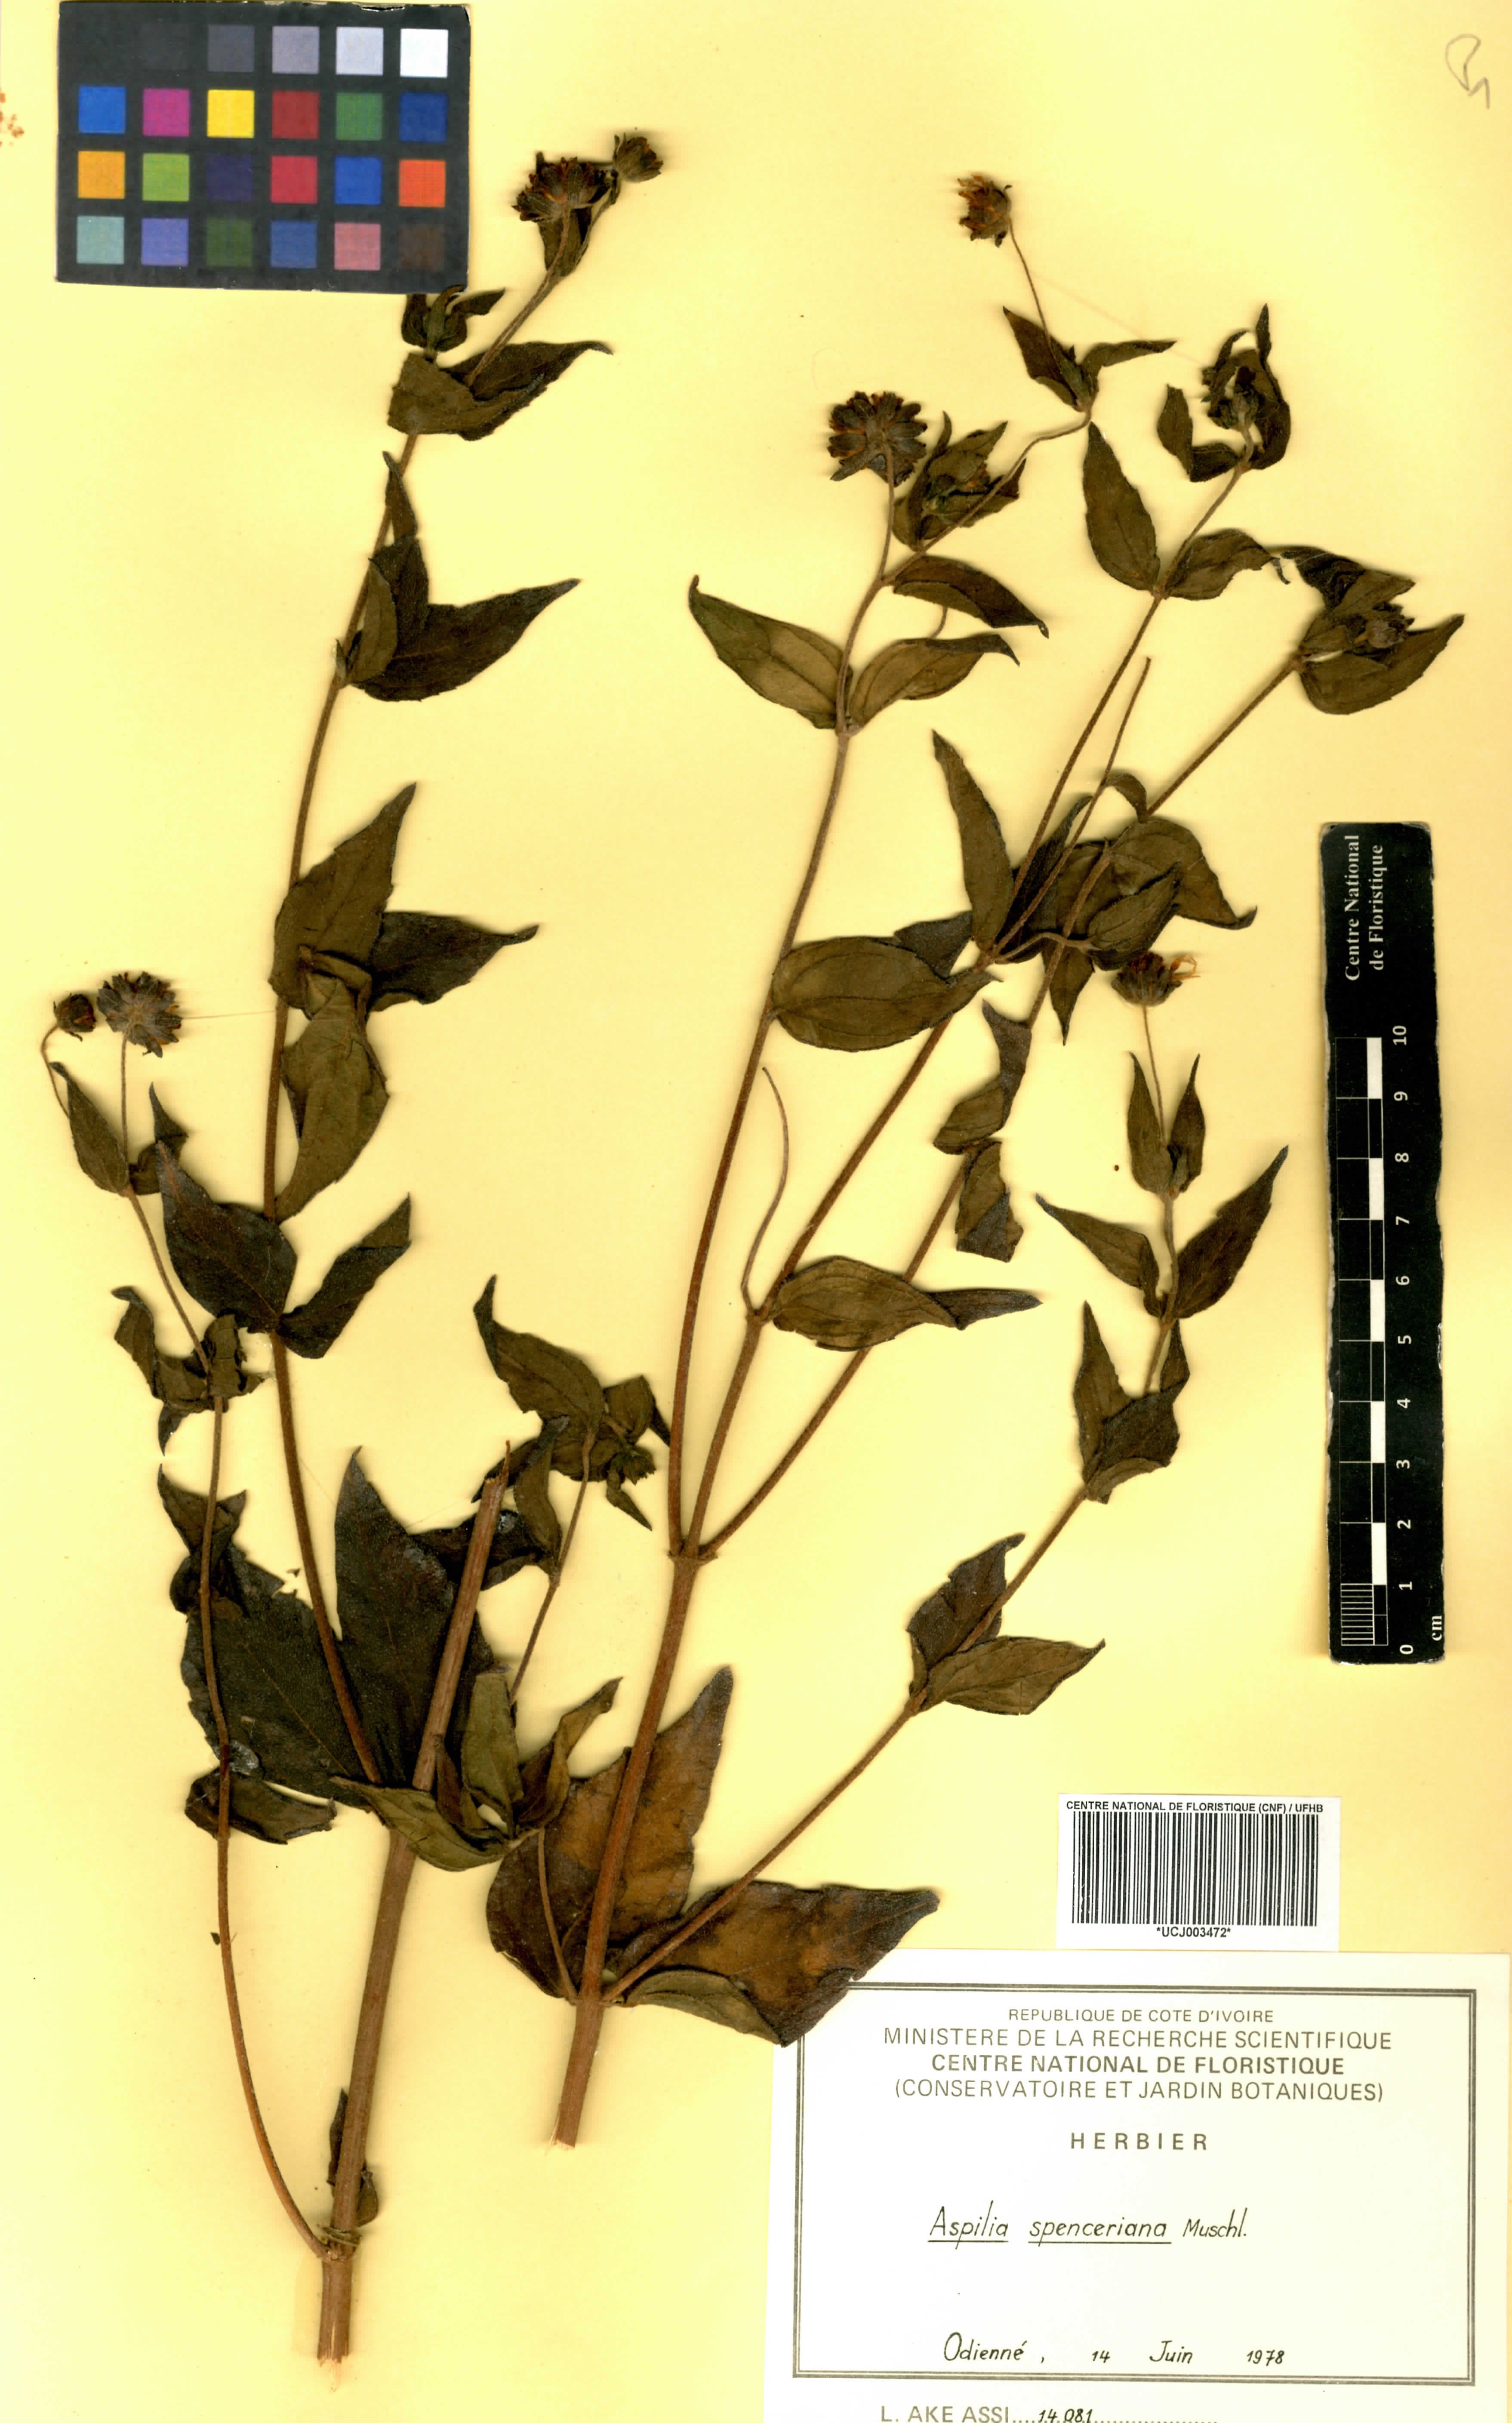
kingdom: Plantae
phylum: Tracheophyta
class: Magnoliopsida
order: Asterales
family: Asteraceae
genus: Aspilia
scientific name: Aspilia rudis
